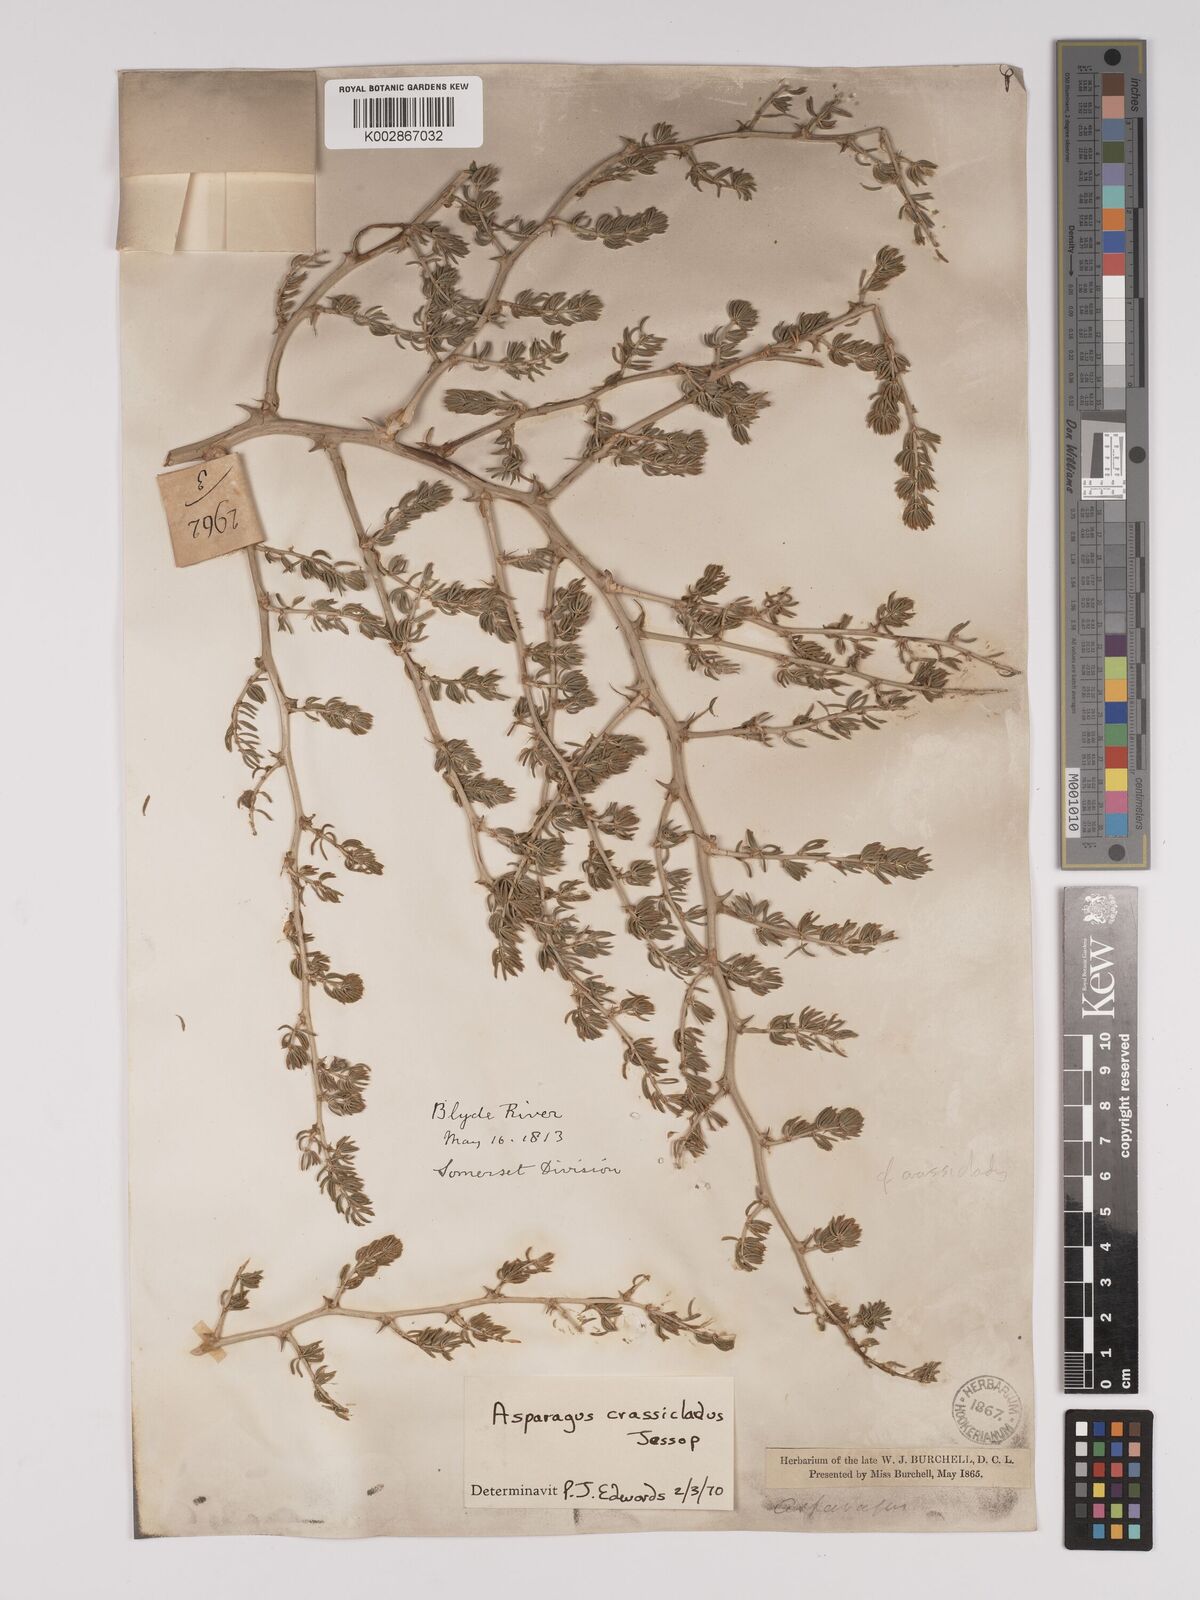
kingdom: Plantae
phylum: Tracheophyta
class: Liliopsida
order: Asparagales
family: Asparagaceae
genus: Asparagus
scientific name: Asparagus crassicladus
